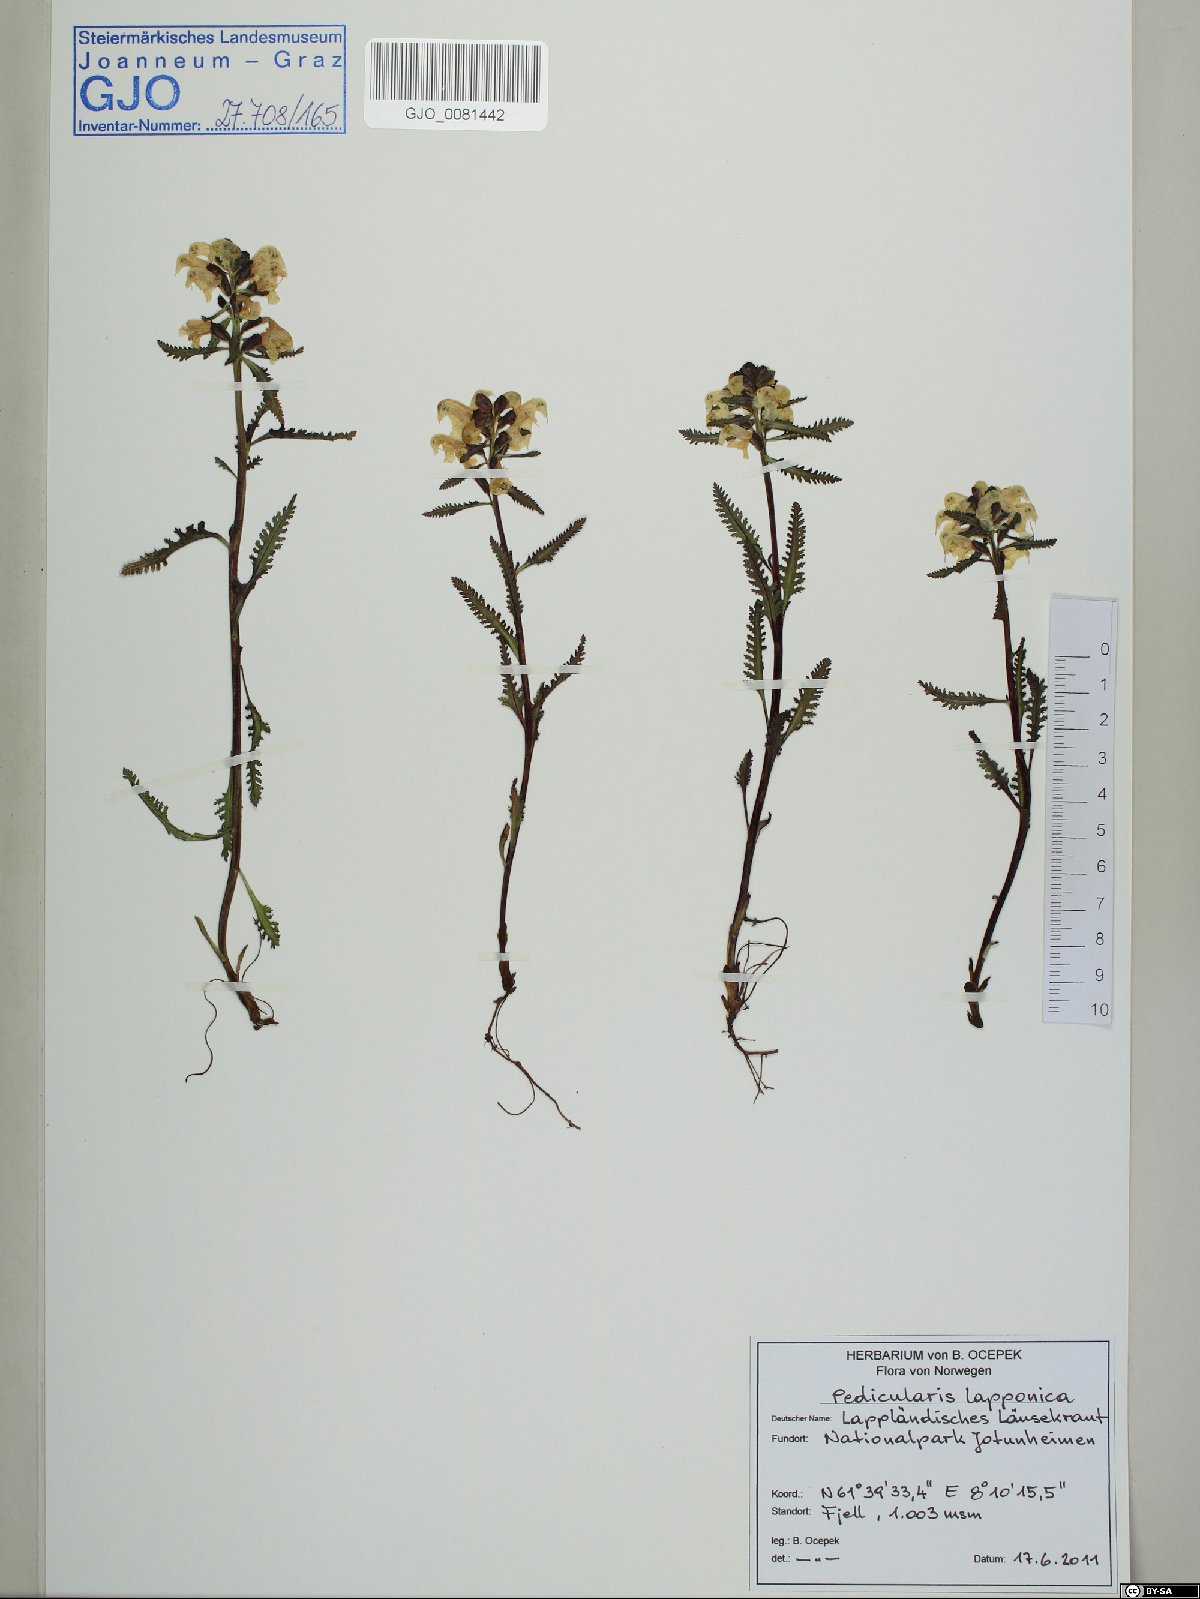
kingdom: Plantae
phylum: Tracheophyta
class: Magnoliopsida
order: Lamiales
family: Orobanchaceae
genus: Pedicularis
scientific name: Pedicularis lapponica
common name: Lapland lousewort
